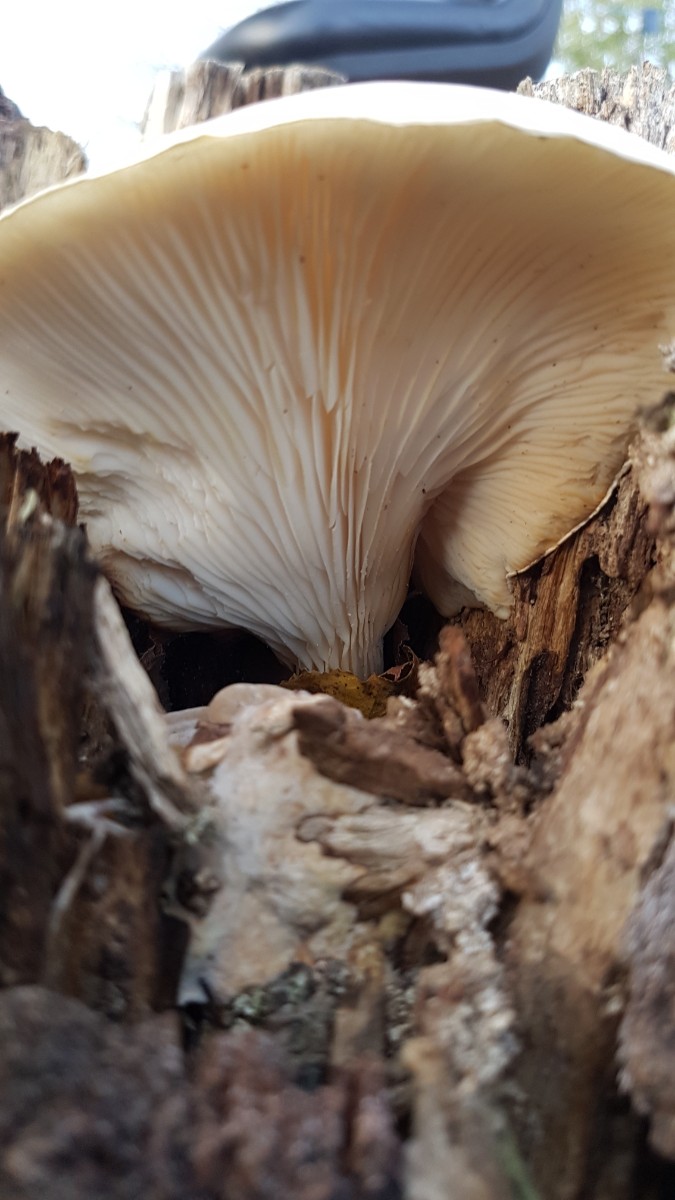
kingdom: Fungi
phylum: Basidiomycota
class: Agaricomycetes
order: Agaricales
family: Pleurotaceae
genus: Pleurotus
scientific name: Pleurotus dryinus
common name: korkagtig østershat
